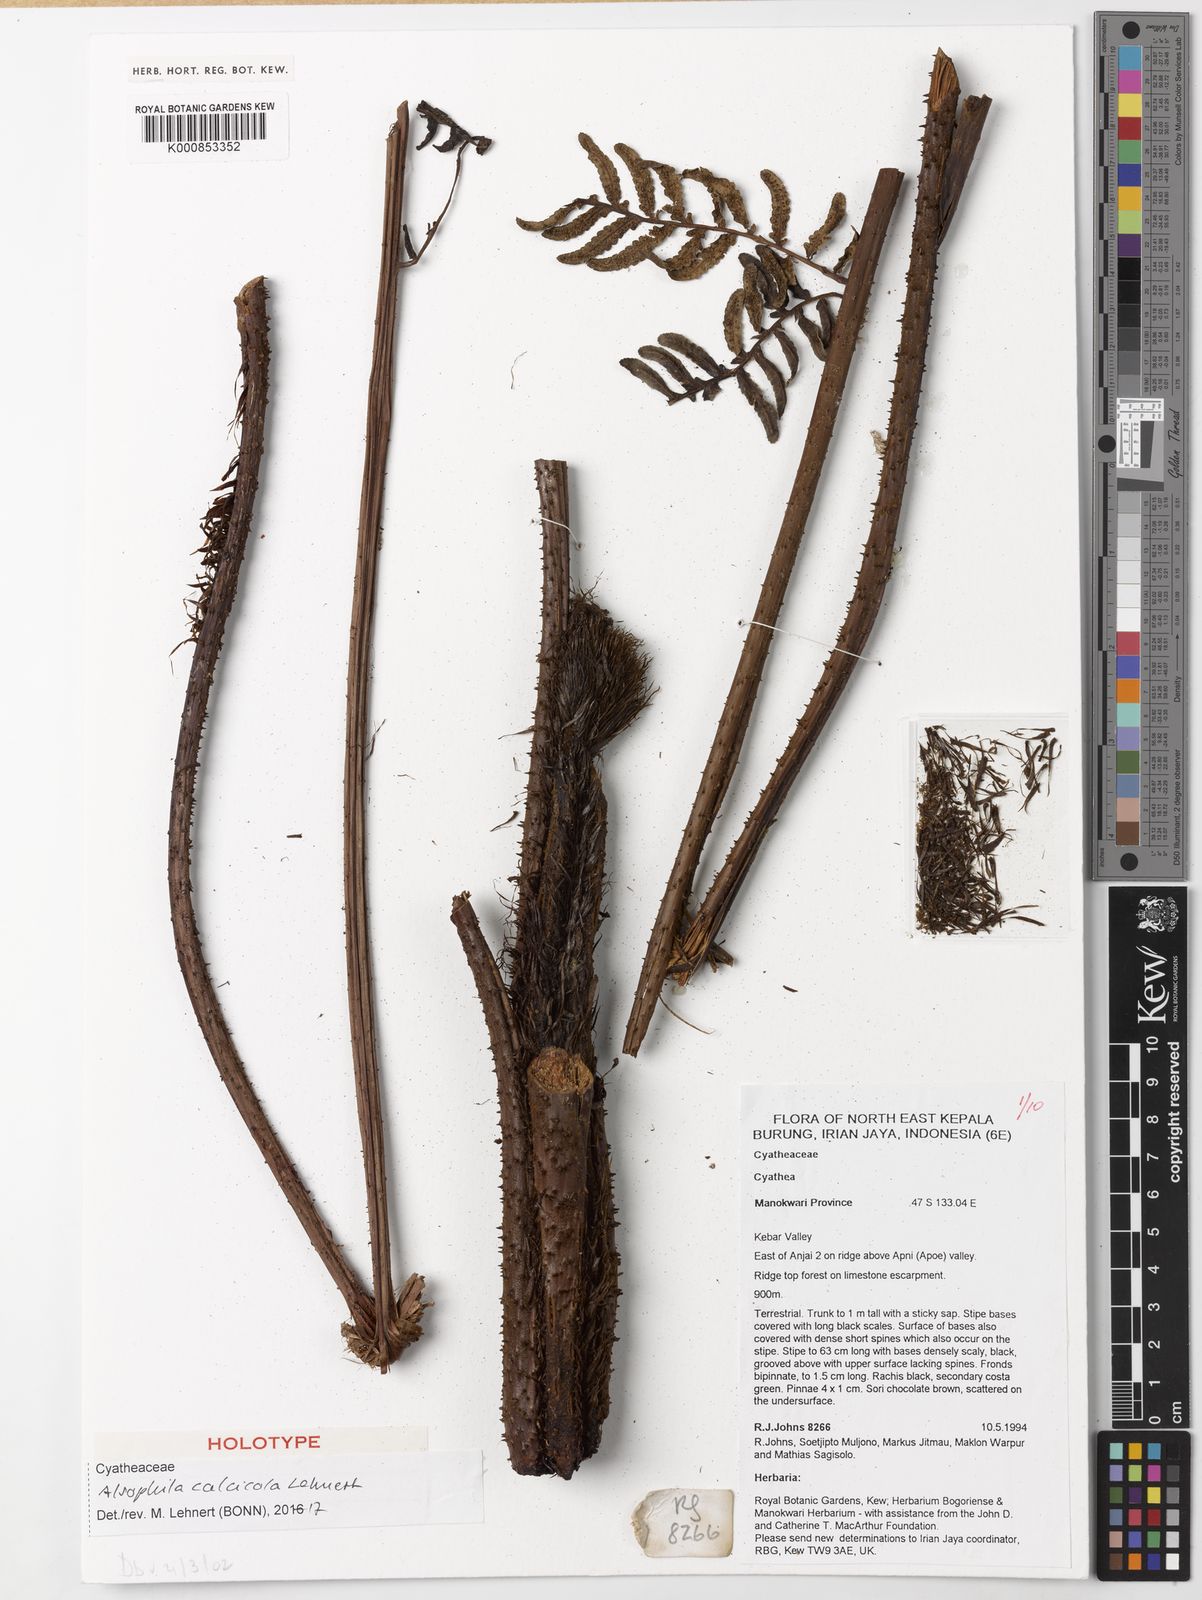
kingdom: Plantae
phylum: Tracheophyta
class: Polypodiopsida
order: Cyatheales
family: Cyatheaceae
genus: Alsophila
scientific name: Alsophila calcicola
